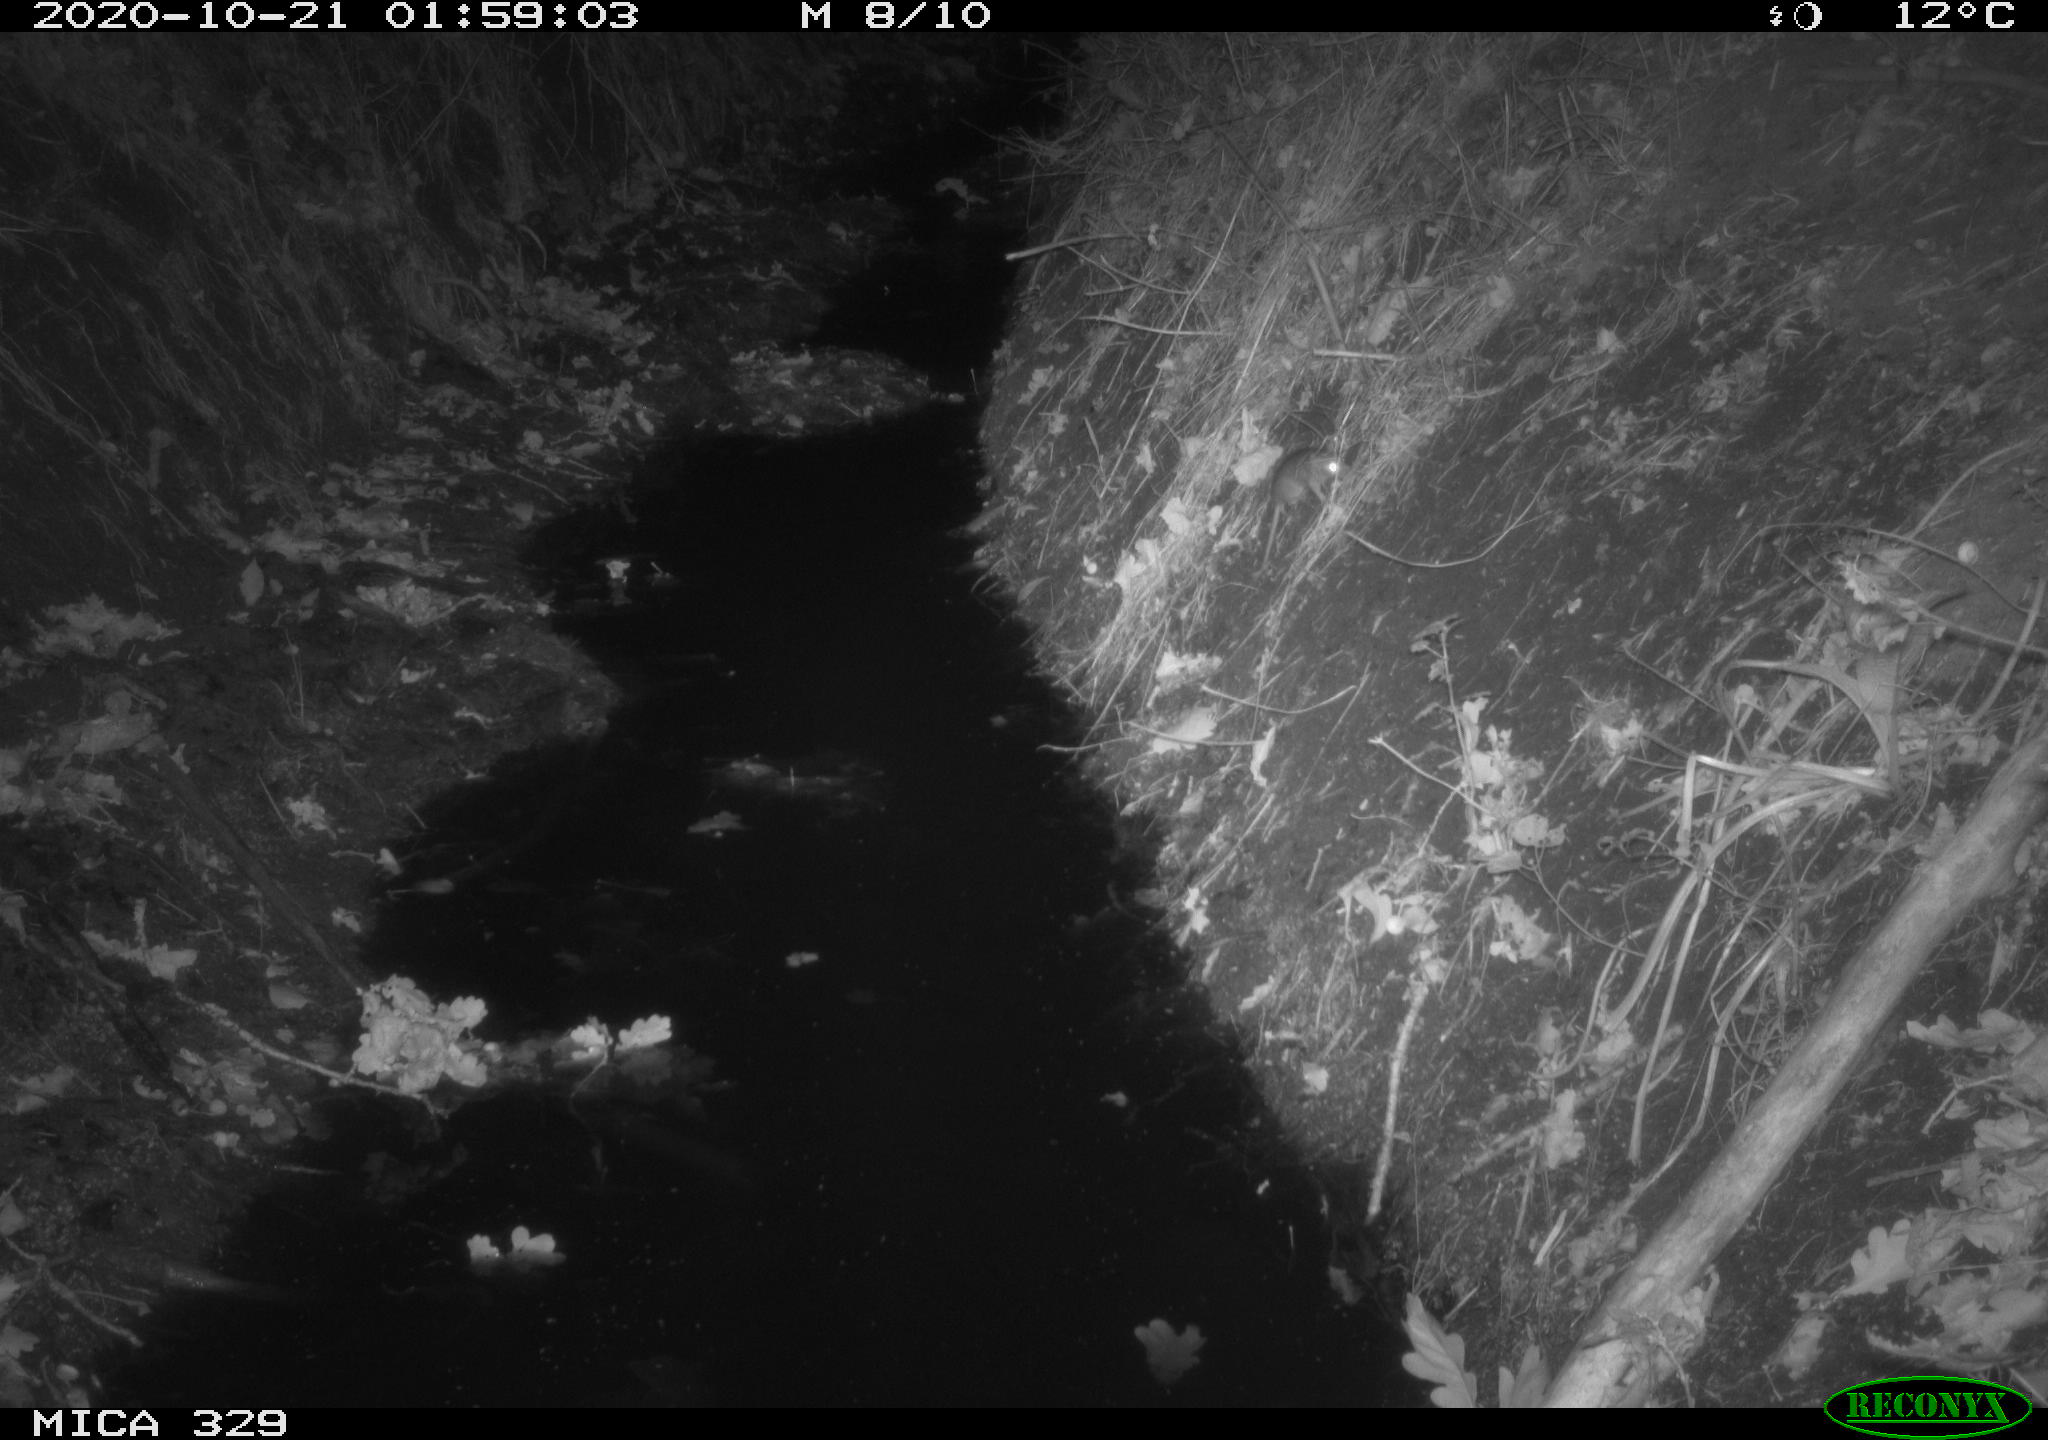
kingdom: Animalia
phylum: Chordata
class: Mammalia
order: Rodentia
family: Muridae
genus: Rattus
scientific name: Rattus norvegicus
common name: Brown rat
